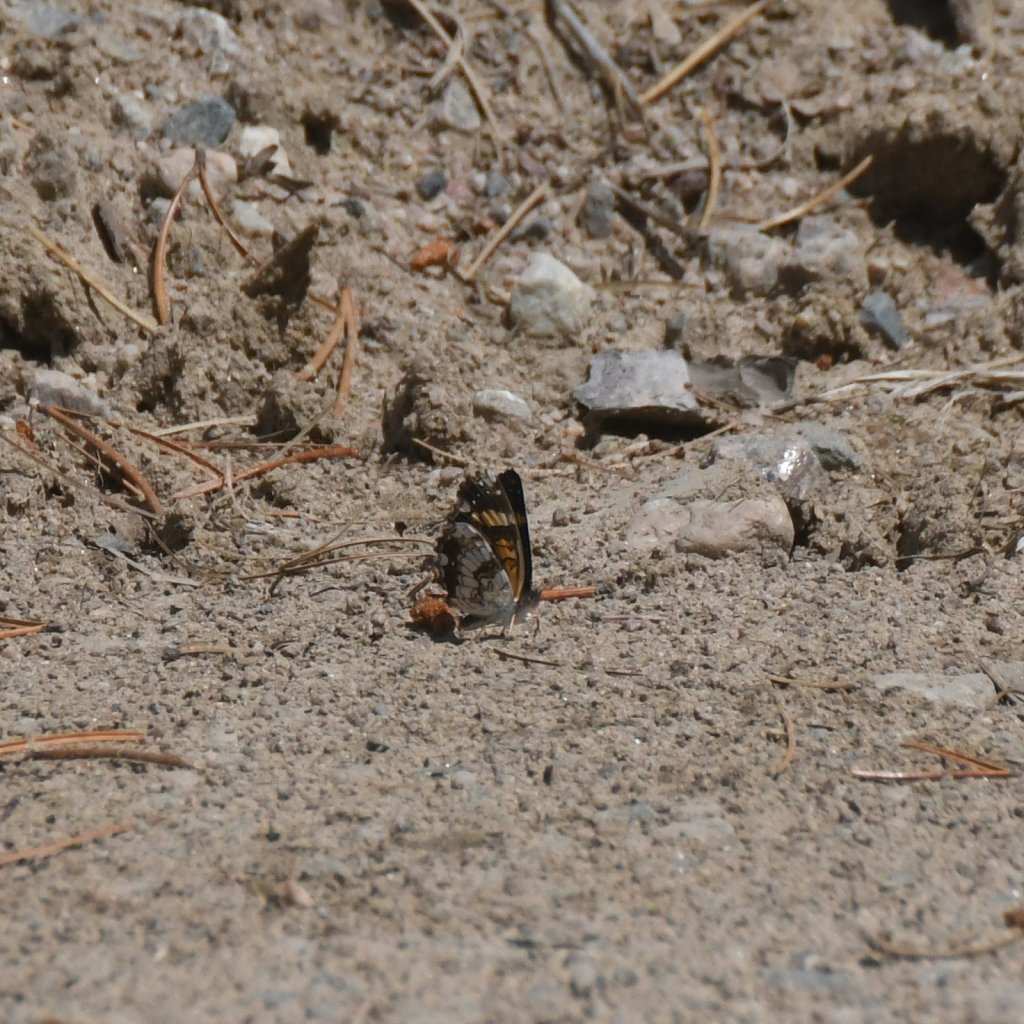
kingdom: Animalia
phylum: Arthropoda
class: Insecta
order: Lepidoptera
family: Nymphalidae
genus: Chlosyne
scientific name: Chlosyne nycteis
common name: Silvery Checkerspot
